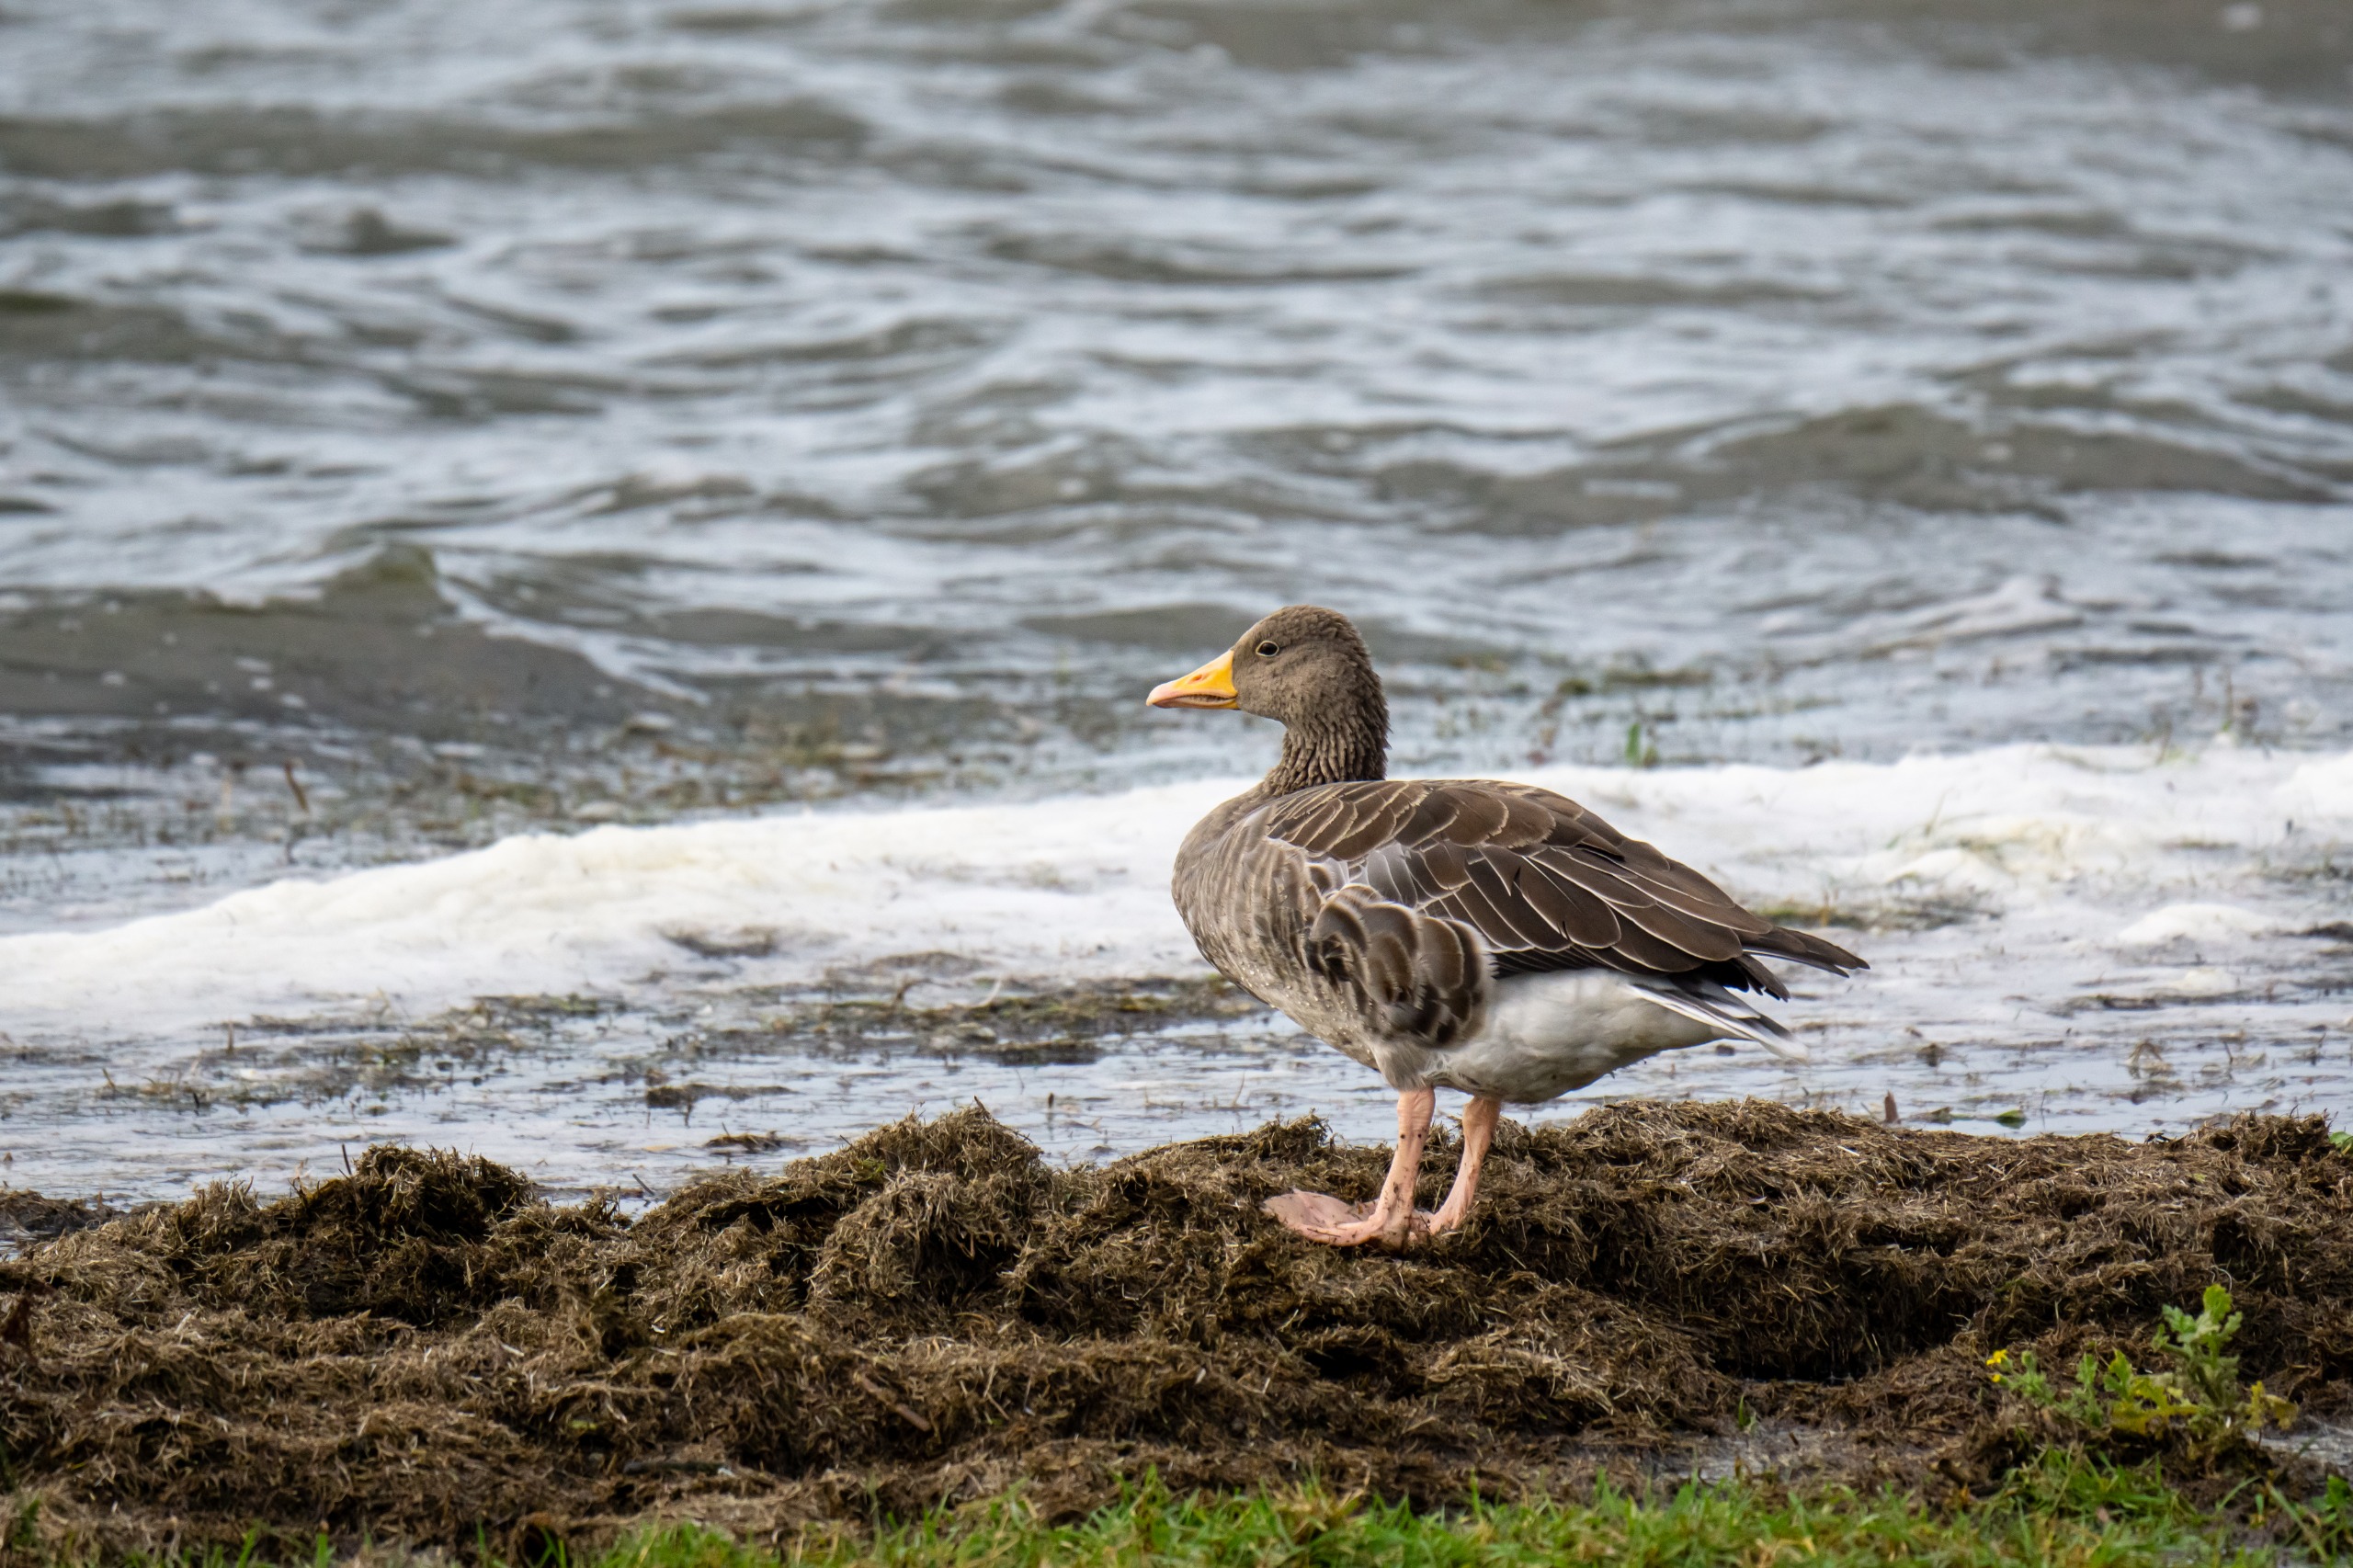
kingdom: Animalia
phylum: Chordata
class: Aves
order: Anseriformes
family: Anatidae
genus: Anser
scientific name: Anser anser
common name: Grågås
